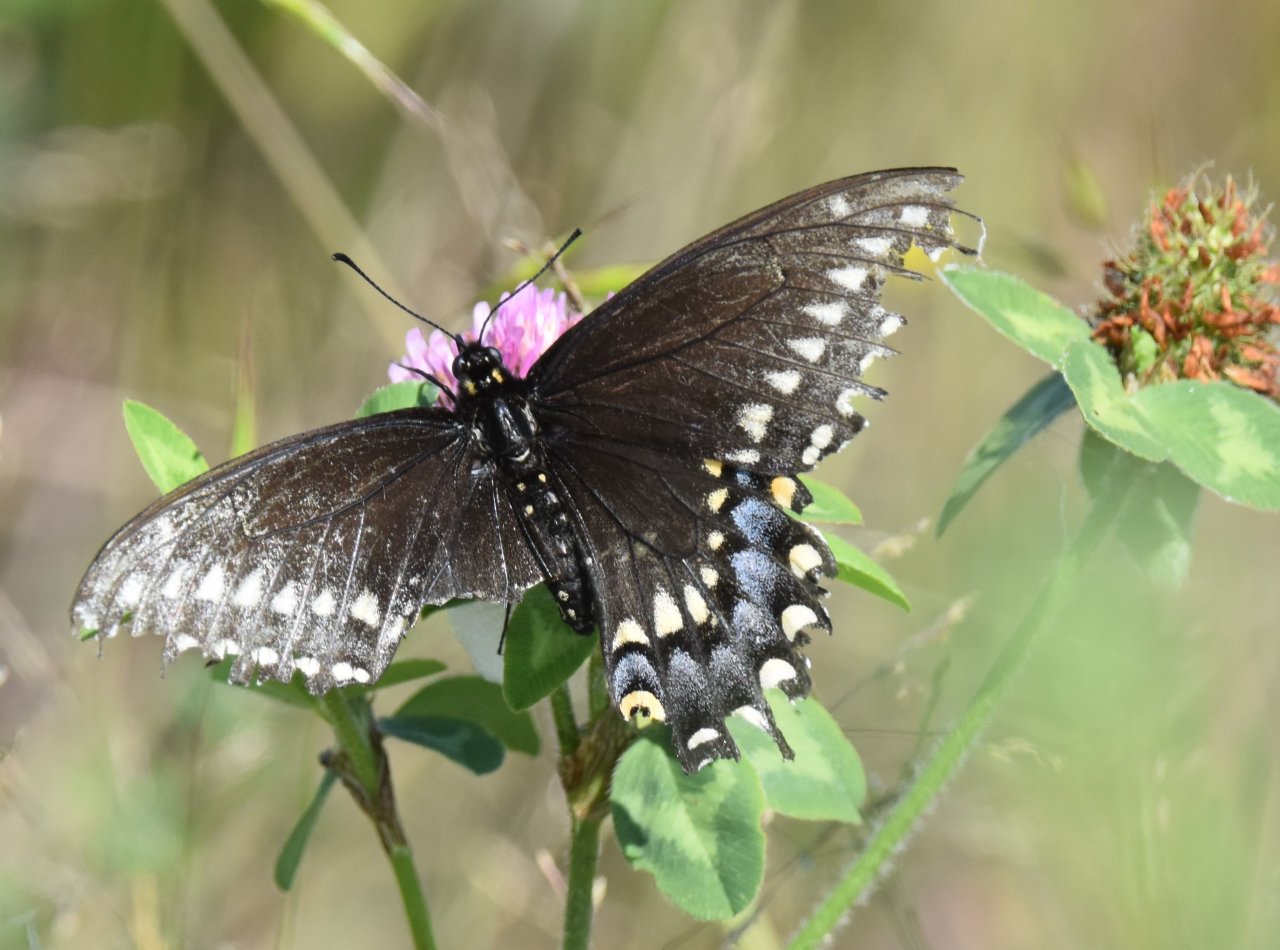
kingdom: Animalia
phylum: Arthropoda
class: Insecta
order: Lepidoptera
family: Papilionidae
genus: Papilio
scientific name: Papilio polyxenes
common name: Black Swallowtail
